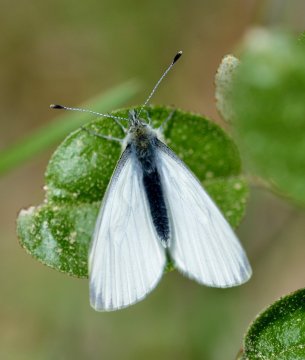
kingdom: Animalia
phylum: Arthropoda
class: Insecta
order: Lepidoptera
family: Pieridae
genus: Pieris
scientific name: Pieris angelika
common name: Arctic White
